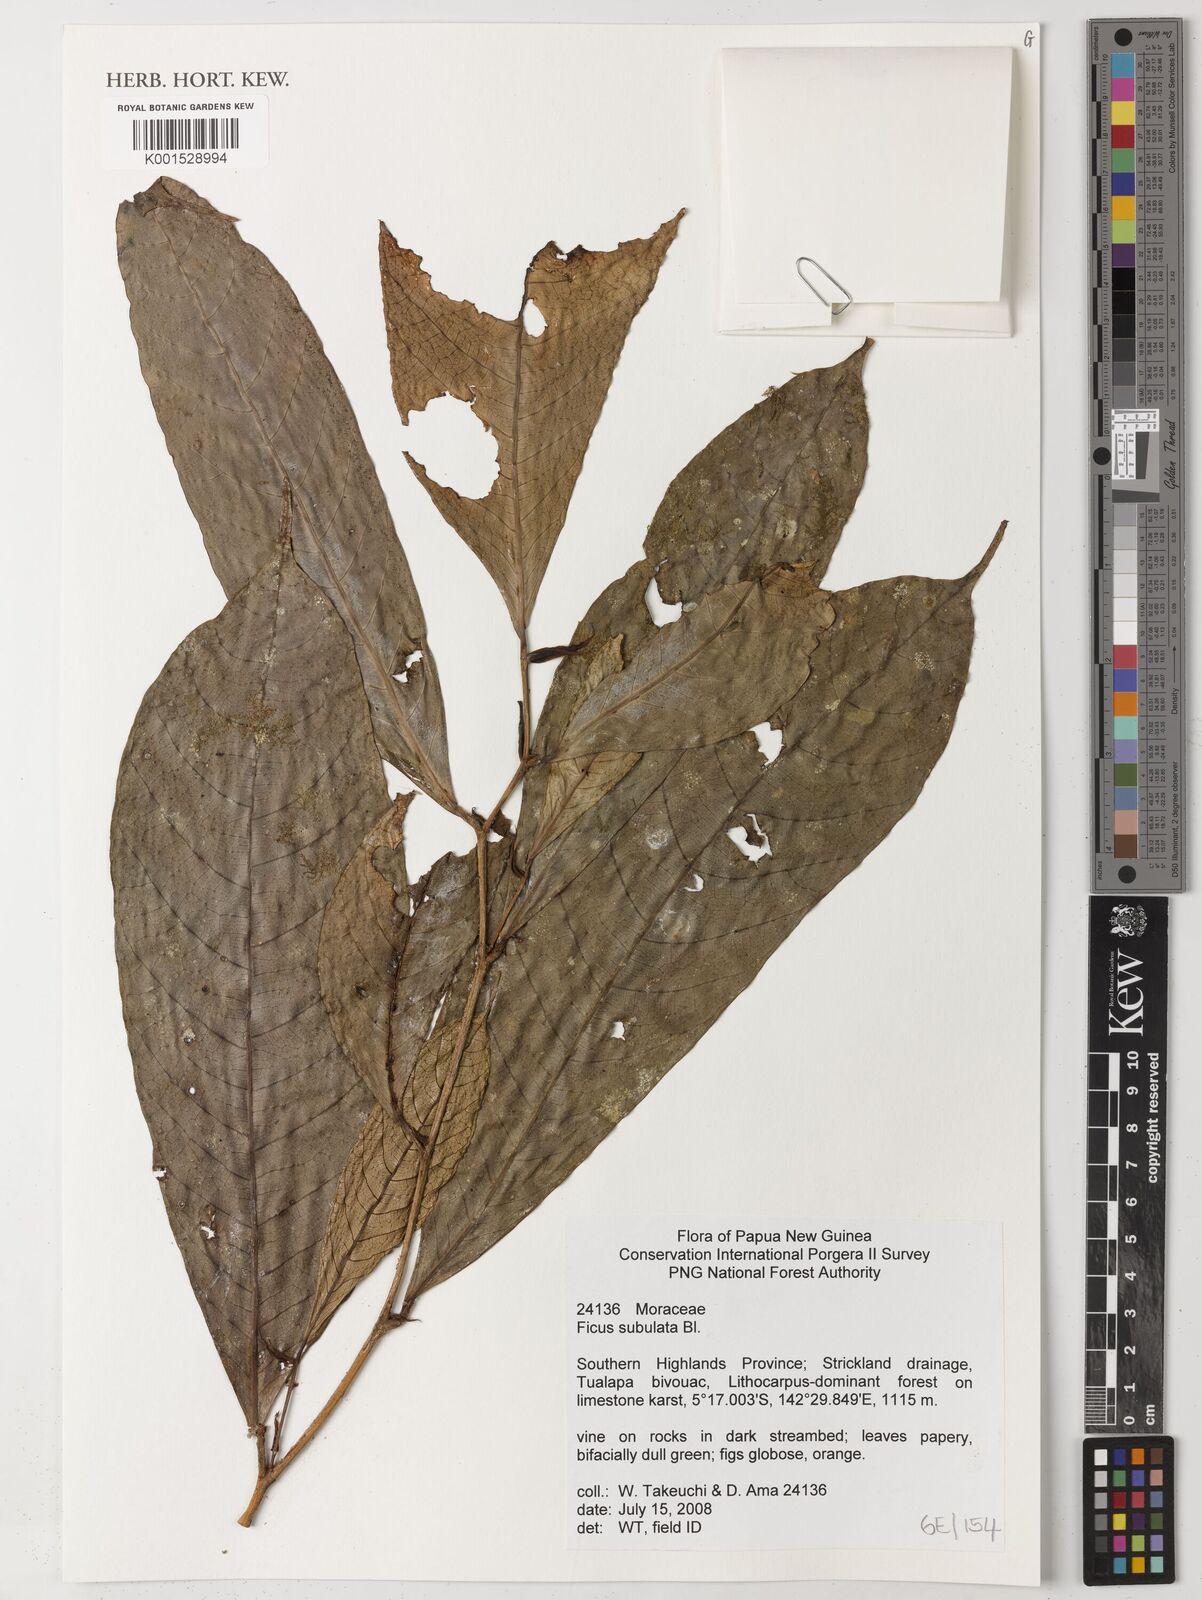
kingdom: Plantae
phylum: Tracheophyta
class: Magnoliopsida
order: Rosales
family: Moraceae
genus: Ficus
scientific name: Ficus subulata
